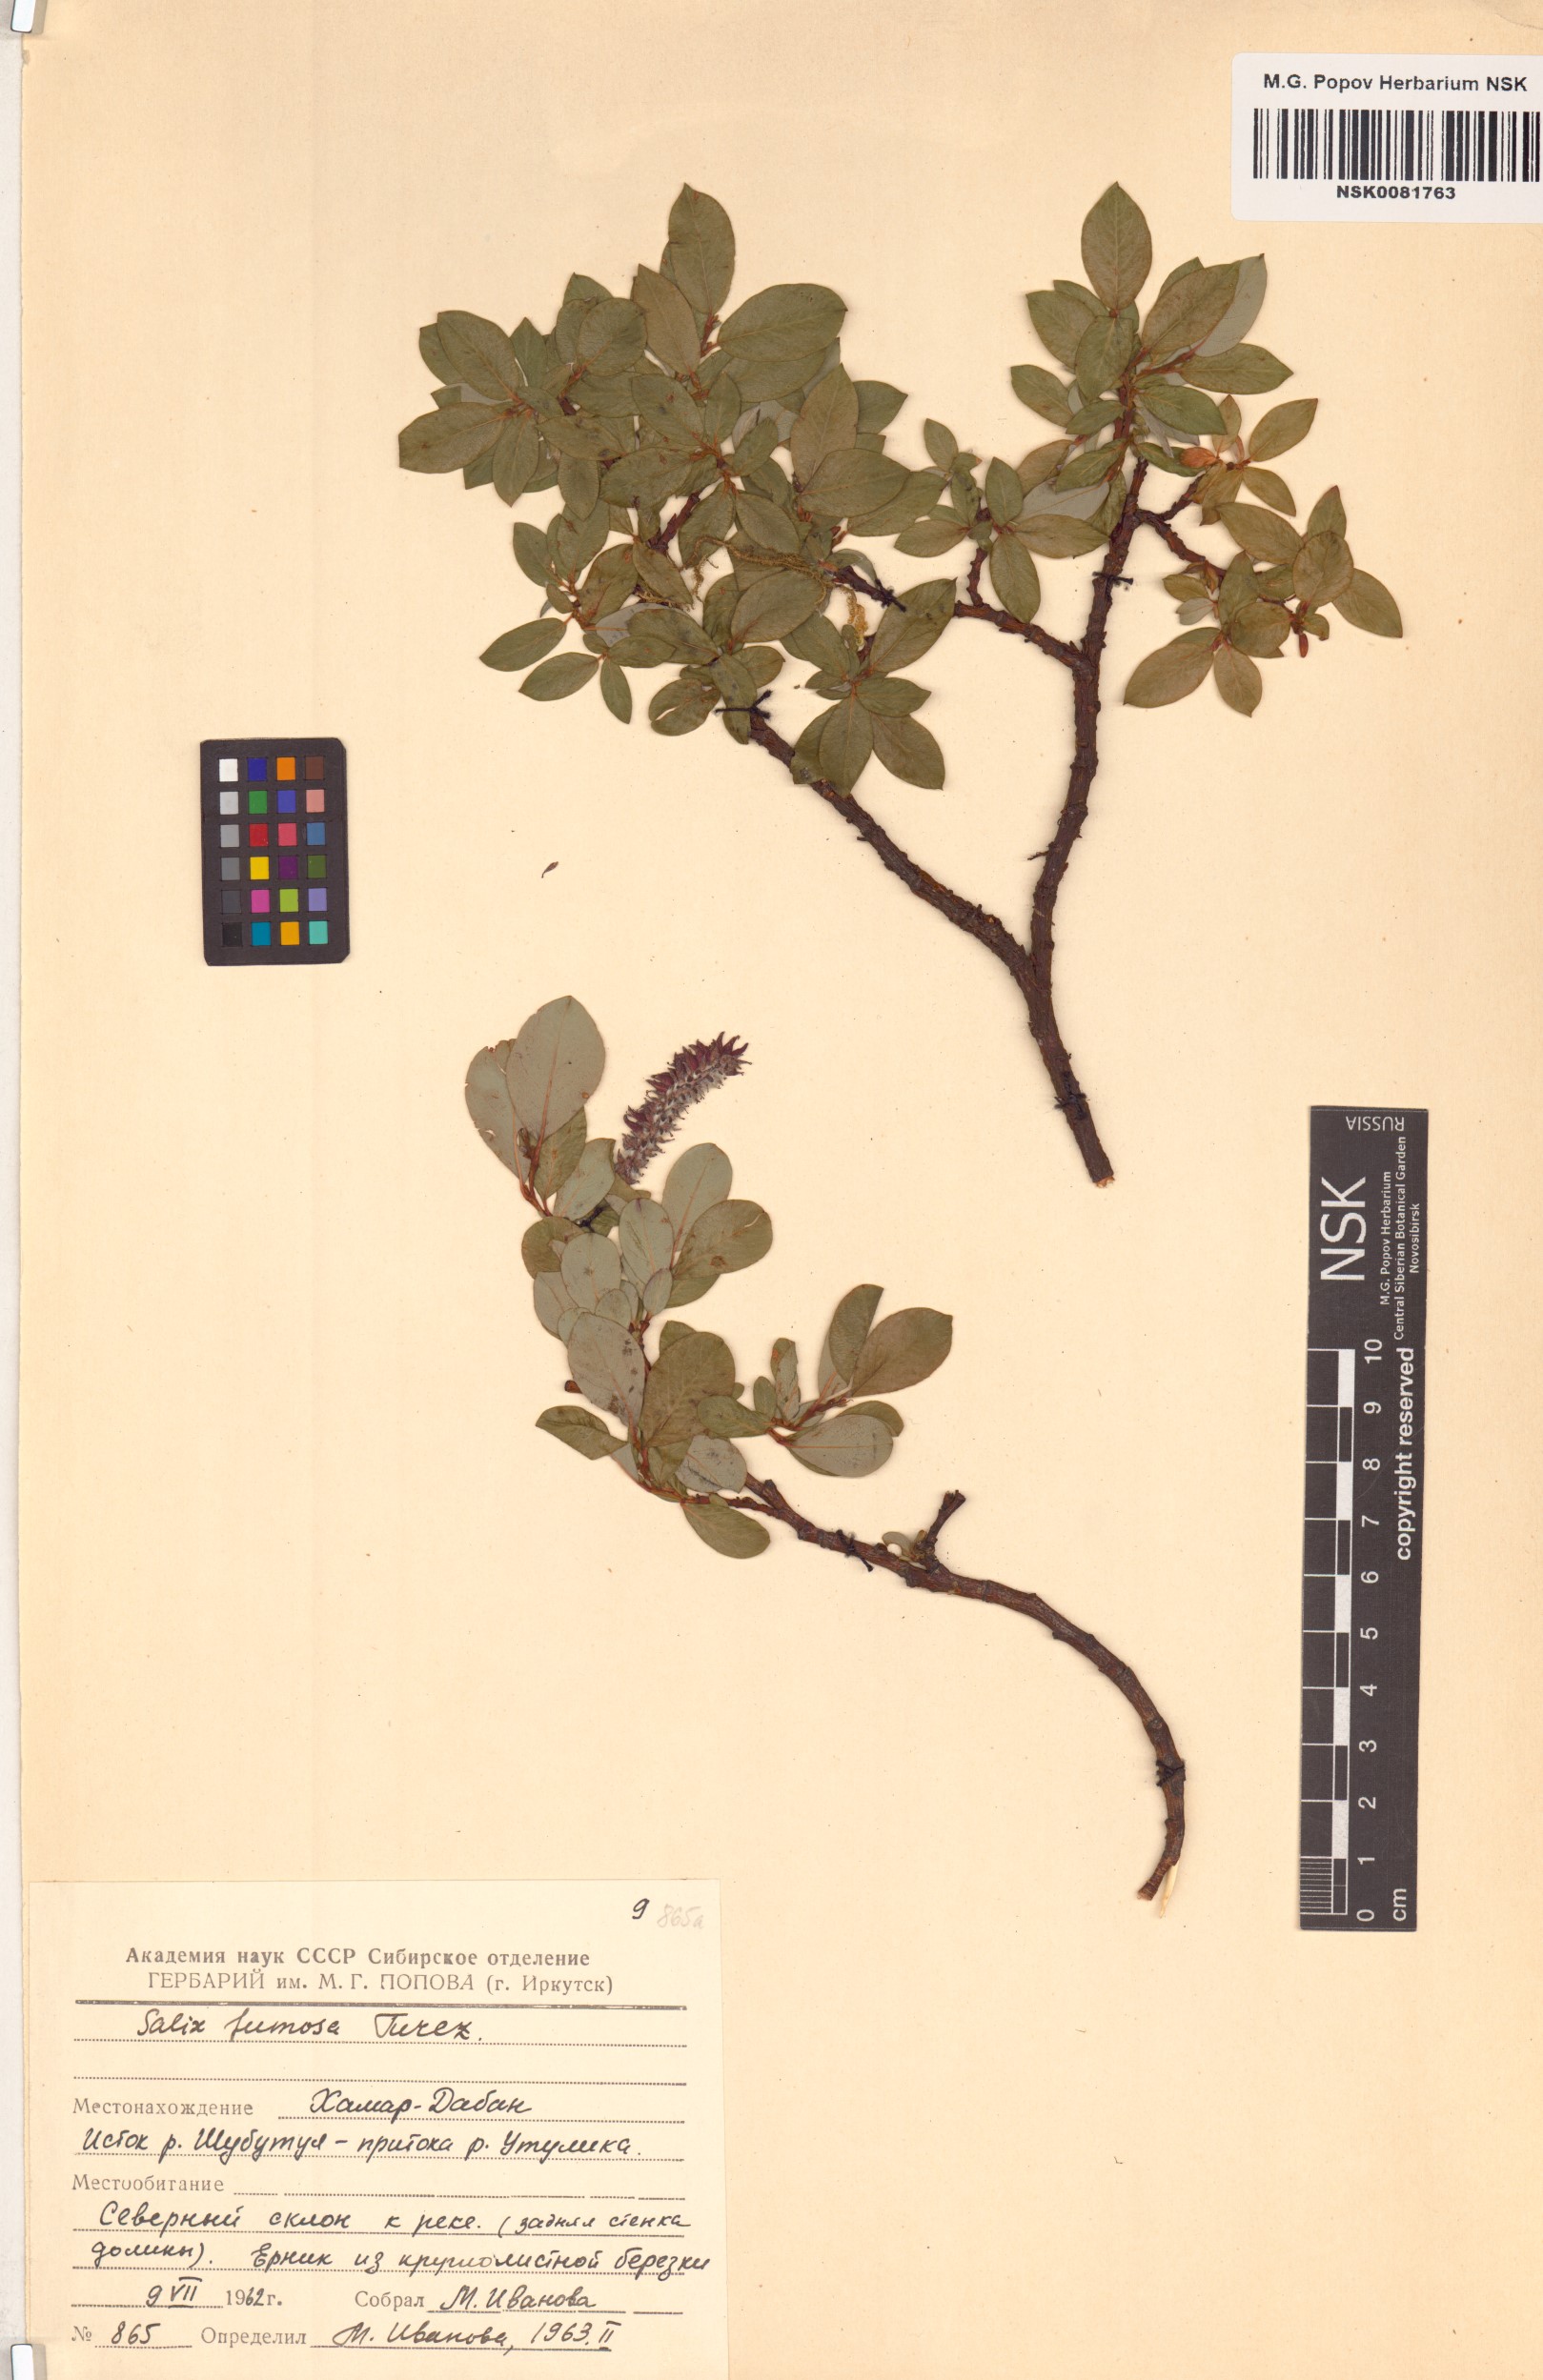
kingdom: Plantae
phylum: Tracheophyta
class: Magnoliopsida
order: Malpighiales
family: Salicaceae
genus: Salix
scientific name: Salix saxatilis
